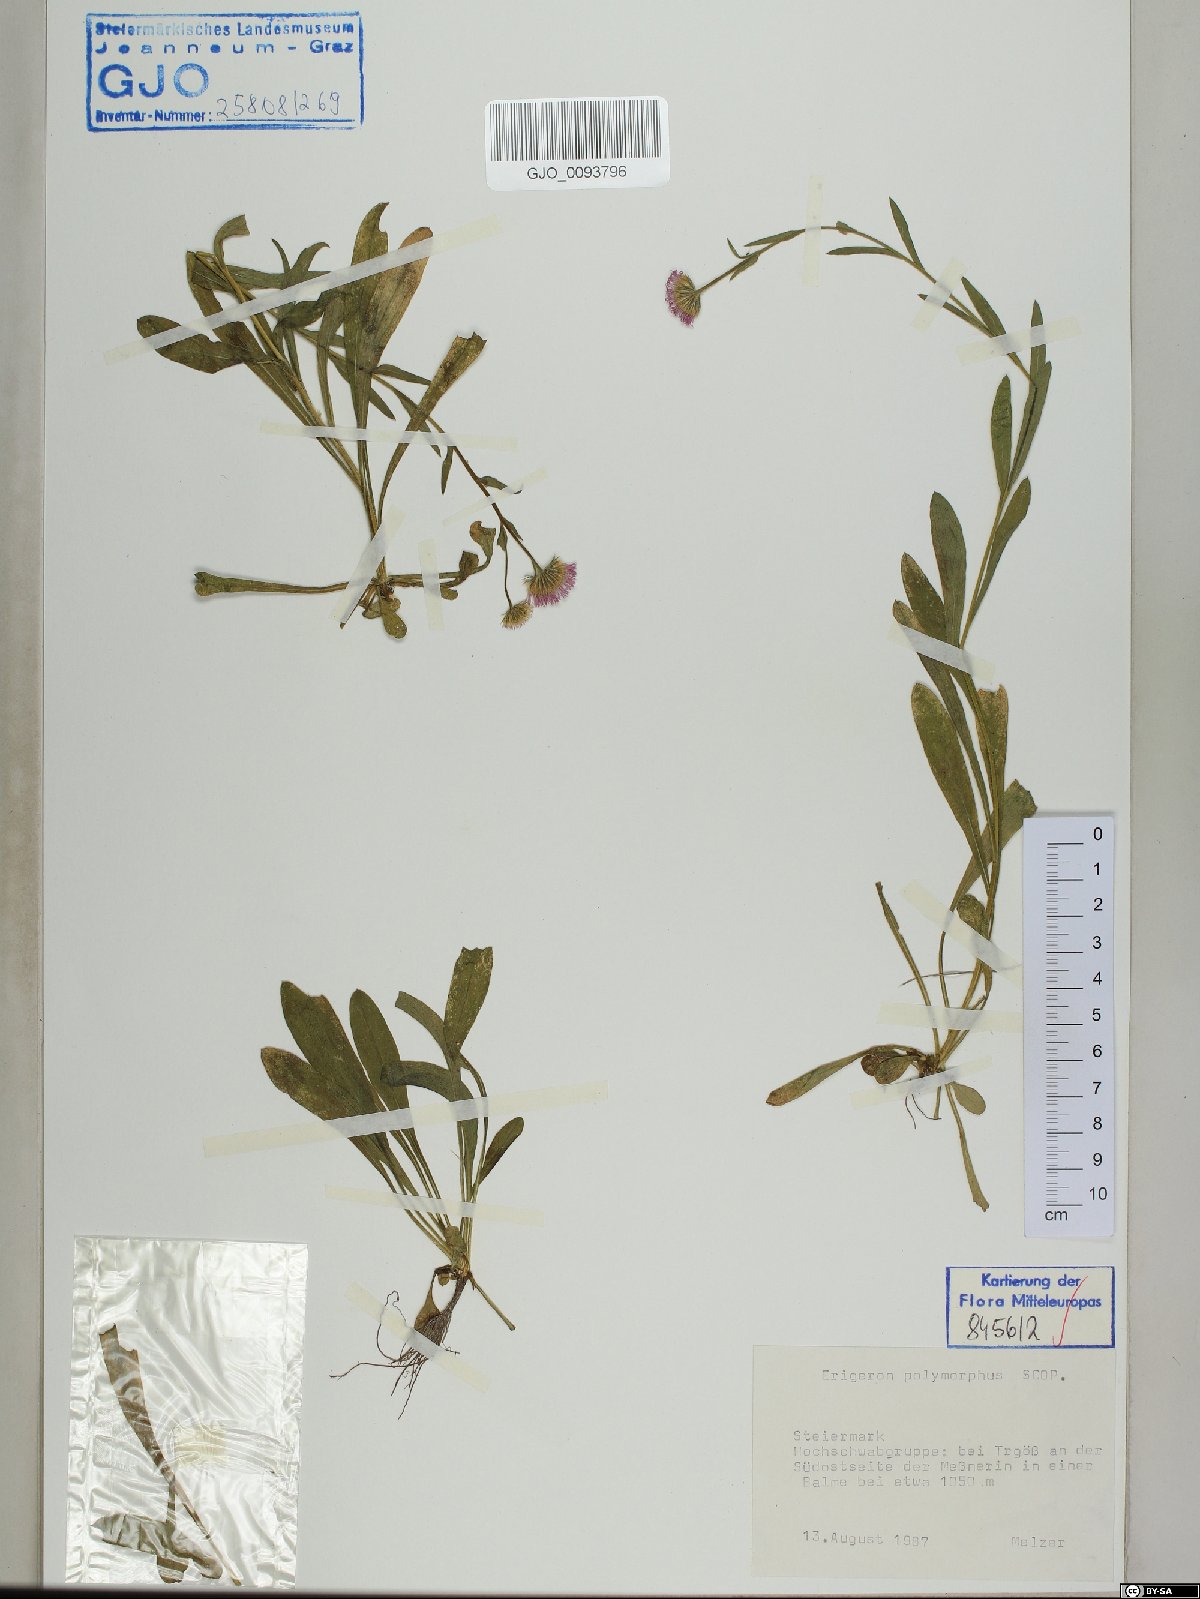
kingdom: Plantae
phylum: Tracheophyta
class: Magnoliopsida
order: Asterales
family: Asteraceae
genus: Erigeron
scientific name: Erigeron alpinus
